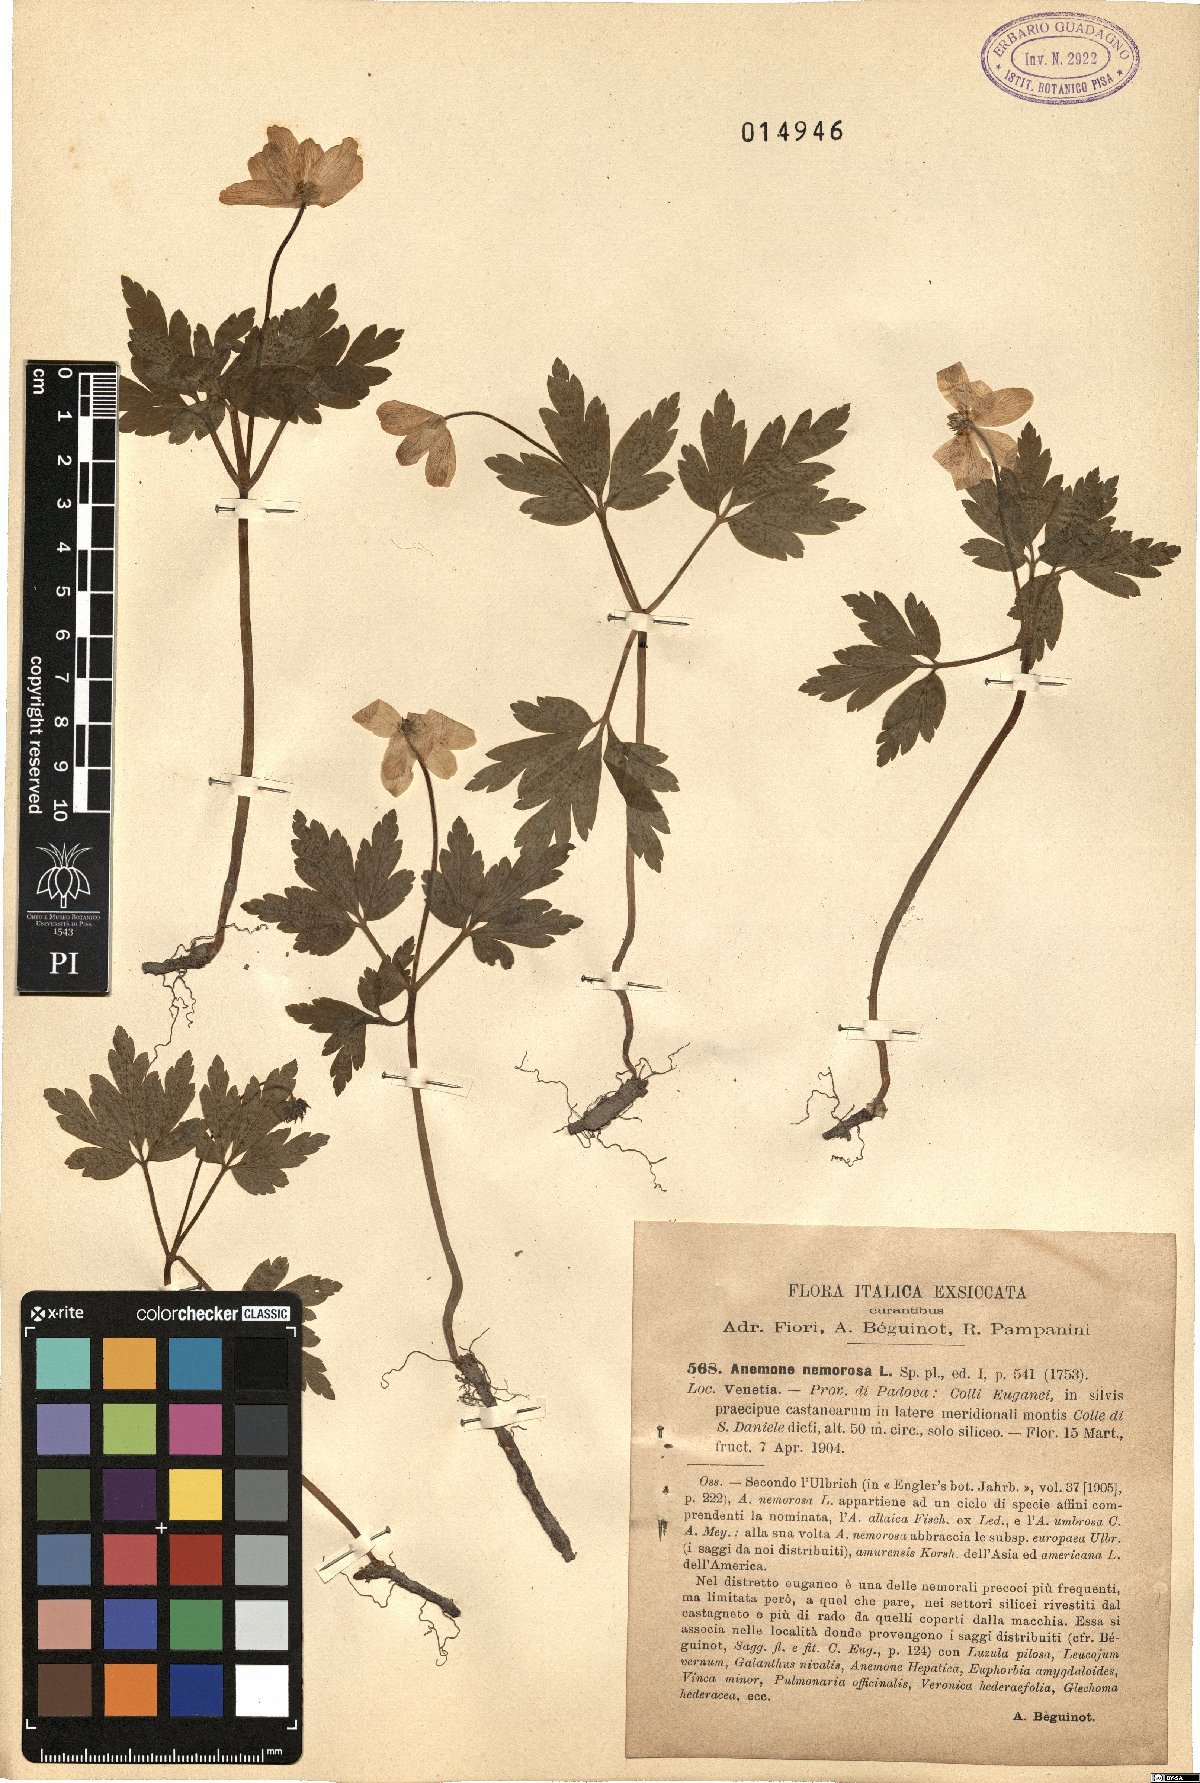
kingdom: Plantae
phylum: Tracheophyta
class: Magnoliopsida
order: Ranunculales
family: Ranunculaceae
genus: Anemone
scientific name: Anemone nemorosa
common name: Wood anemone
